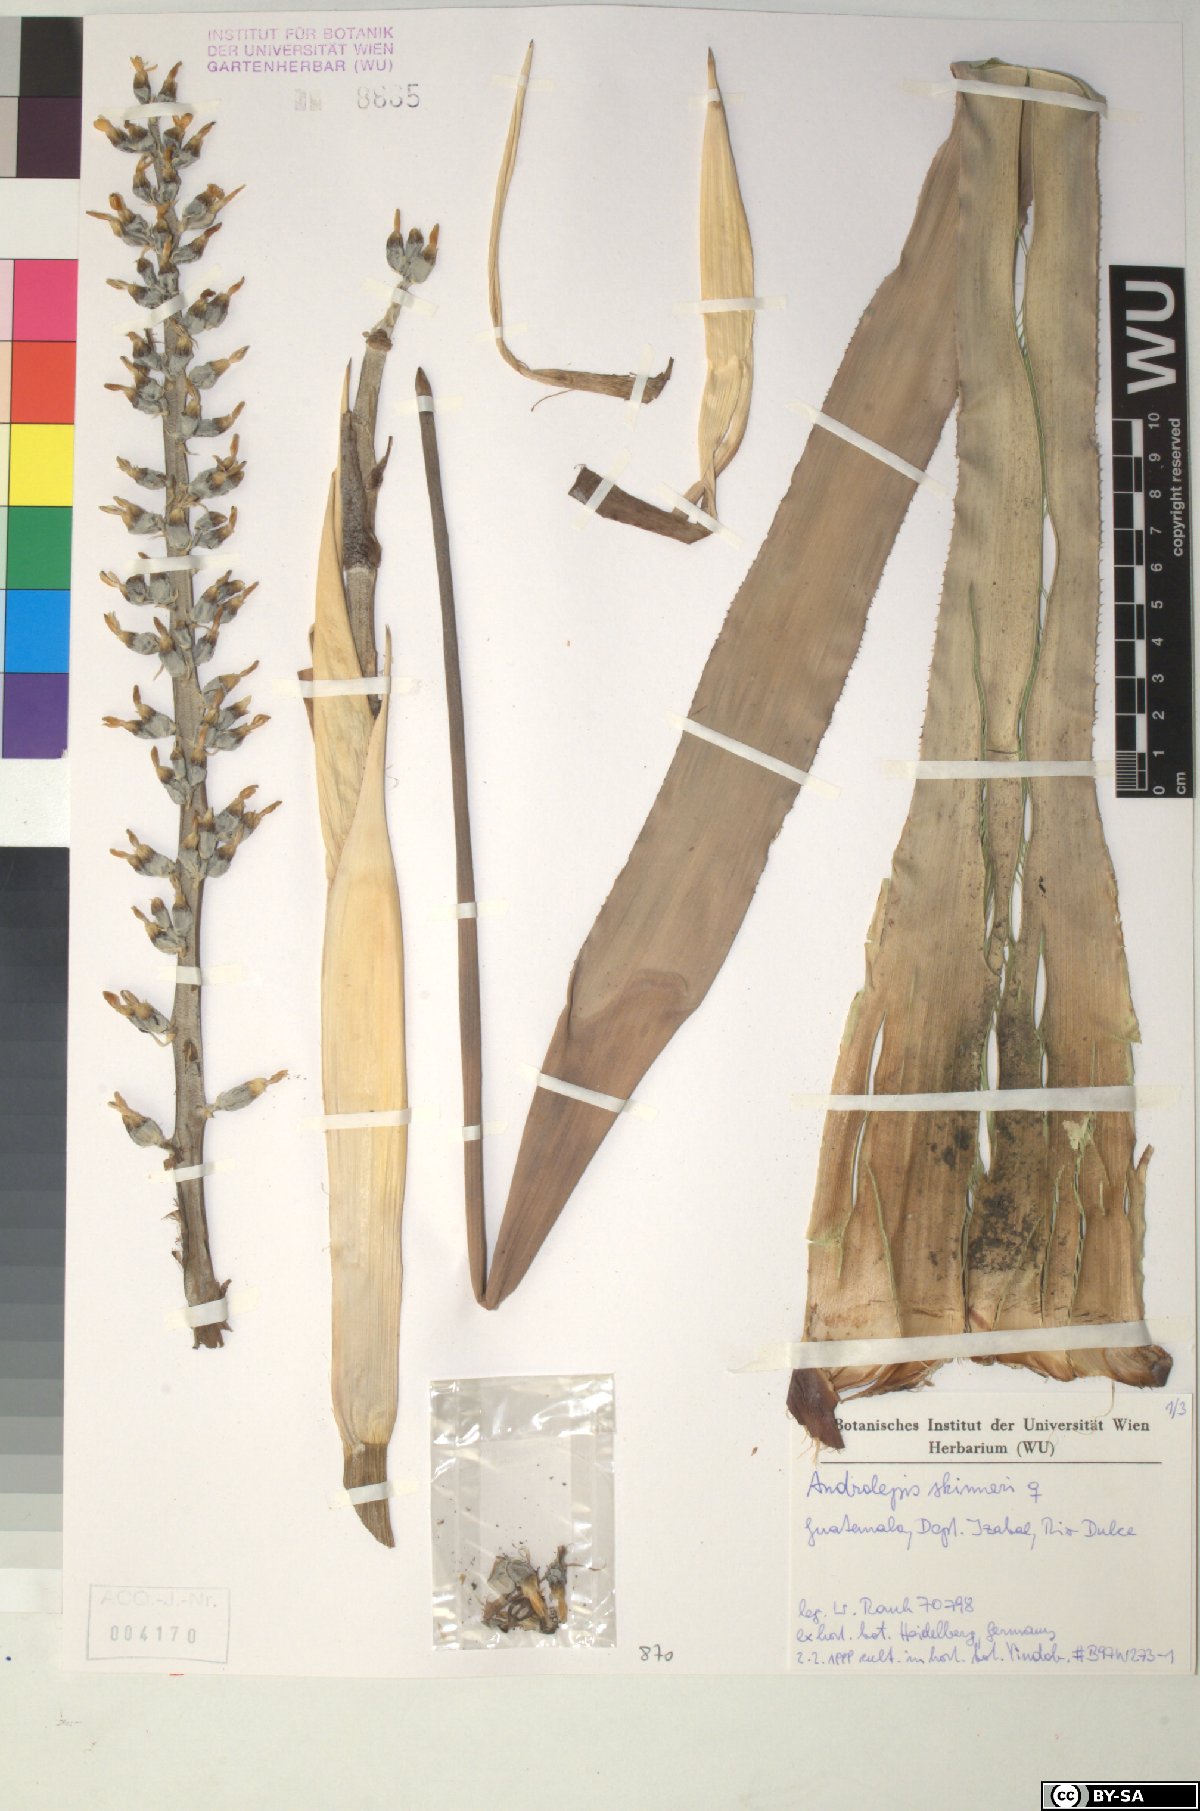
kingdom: Plantae
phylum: Tracheophyta
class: Liliopsida
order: Poales
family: Bromeliaceae
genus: Androlepis
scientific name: Androlepis skinneri
